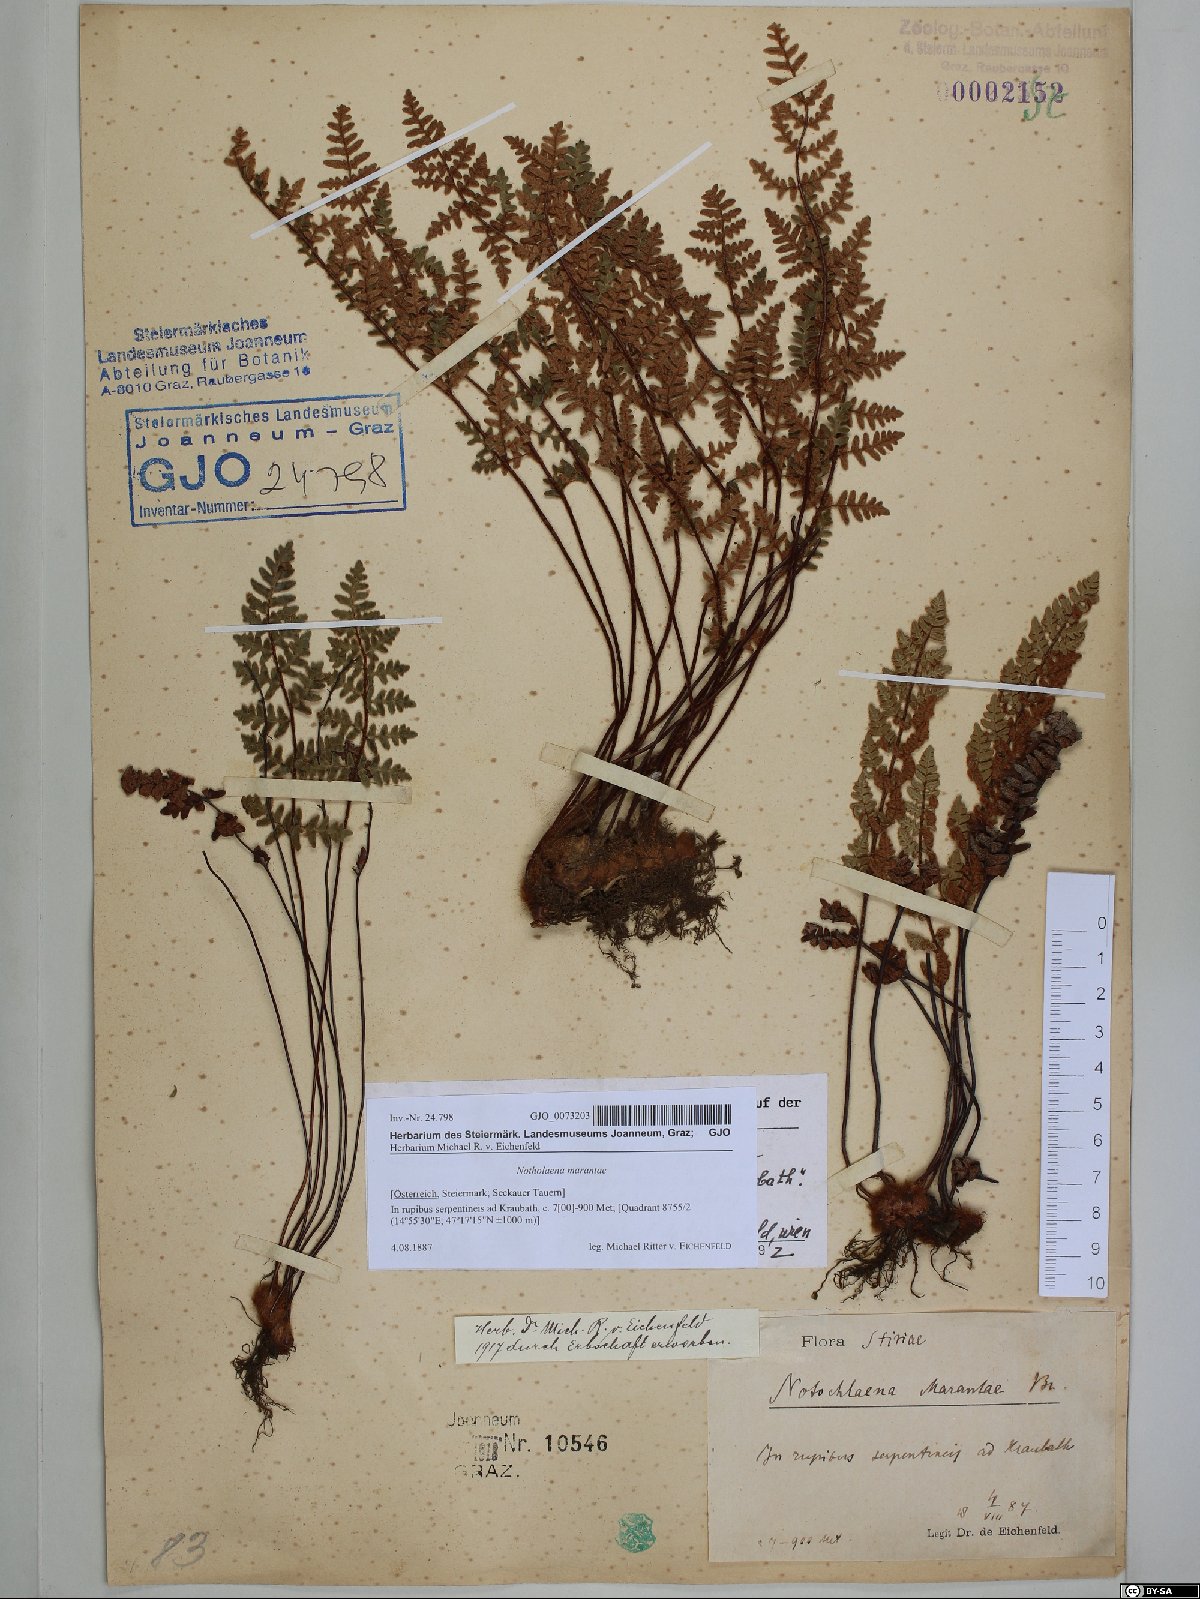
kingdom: Plantae
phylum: Tracheophyta
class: Polypodiopsida
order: Polypodiales
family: Pteridaceae
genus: Paragymnopteris
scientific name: Paragymnopteris marantae
